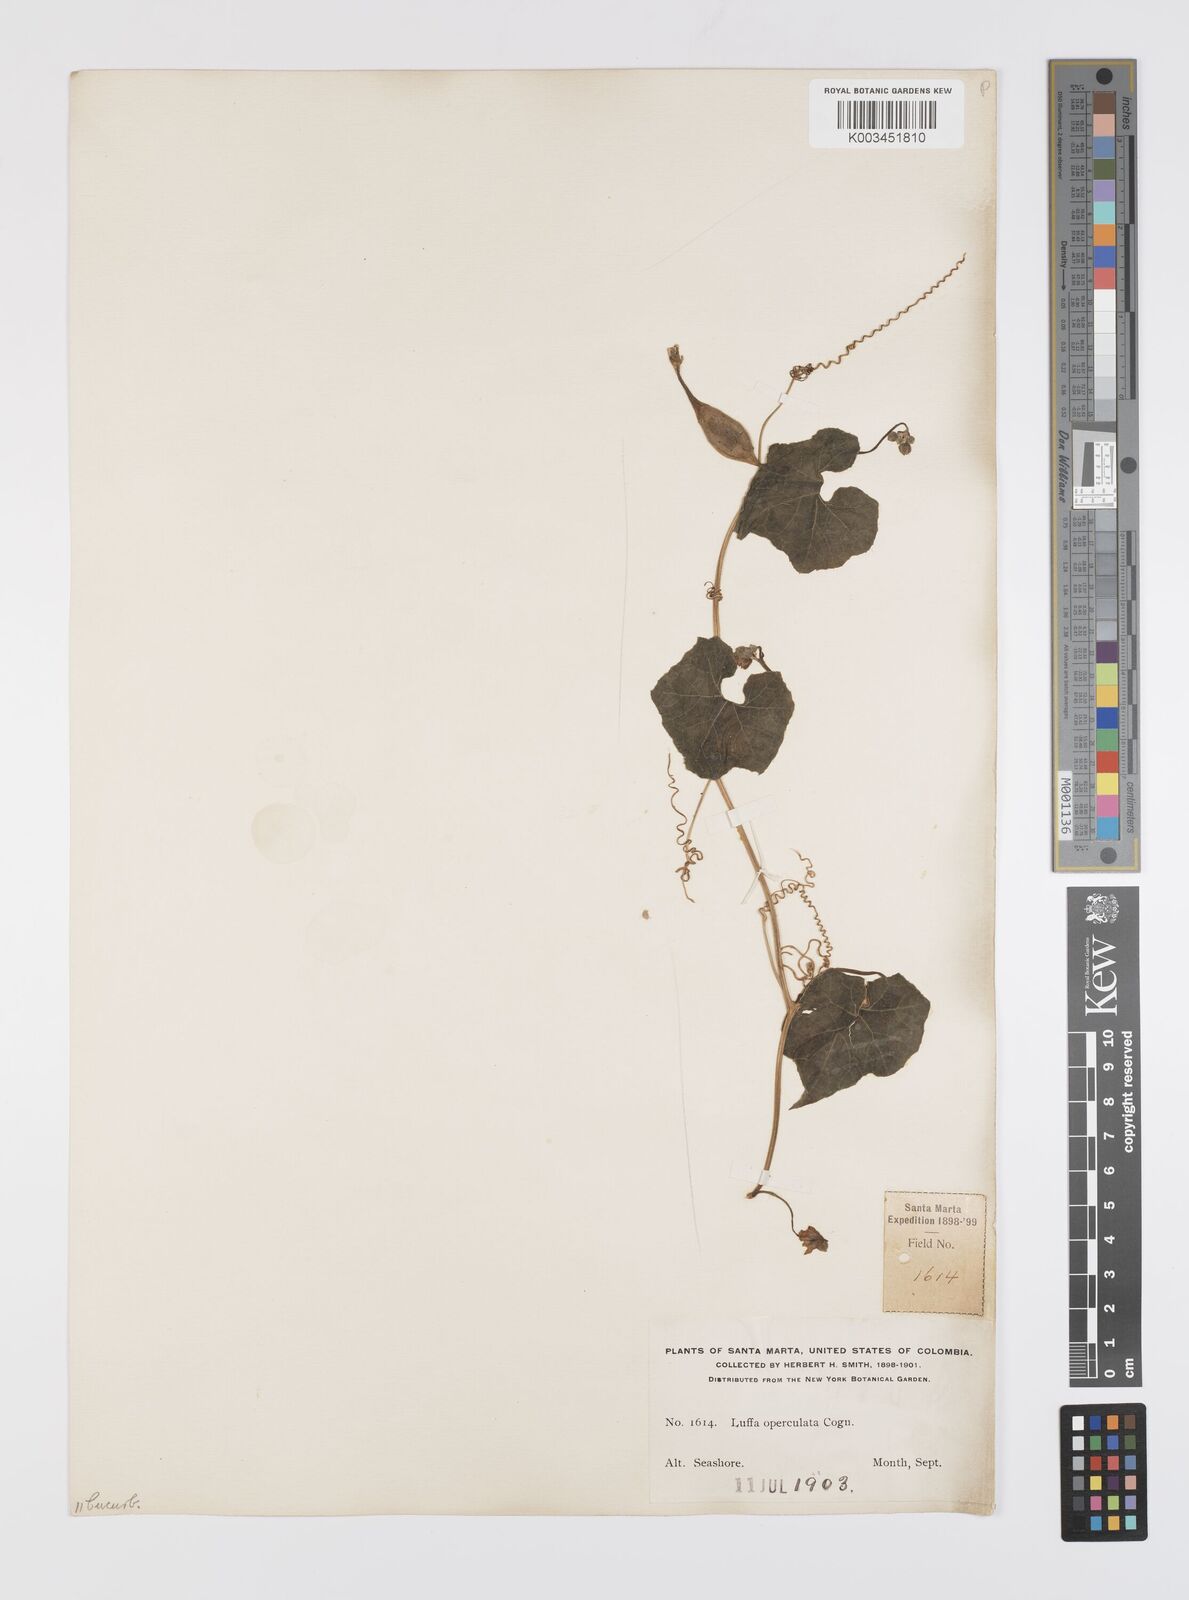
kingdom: Plantae
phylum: Tracheophyta
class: Magnoliopsida
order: Cucurbitales
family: Cucurbitaceae
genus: Luffa
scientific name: Luffa operculata
